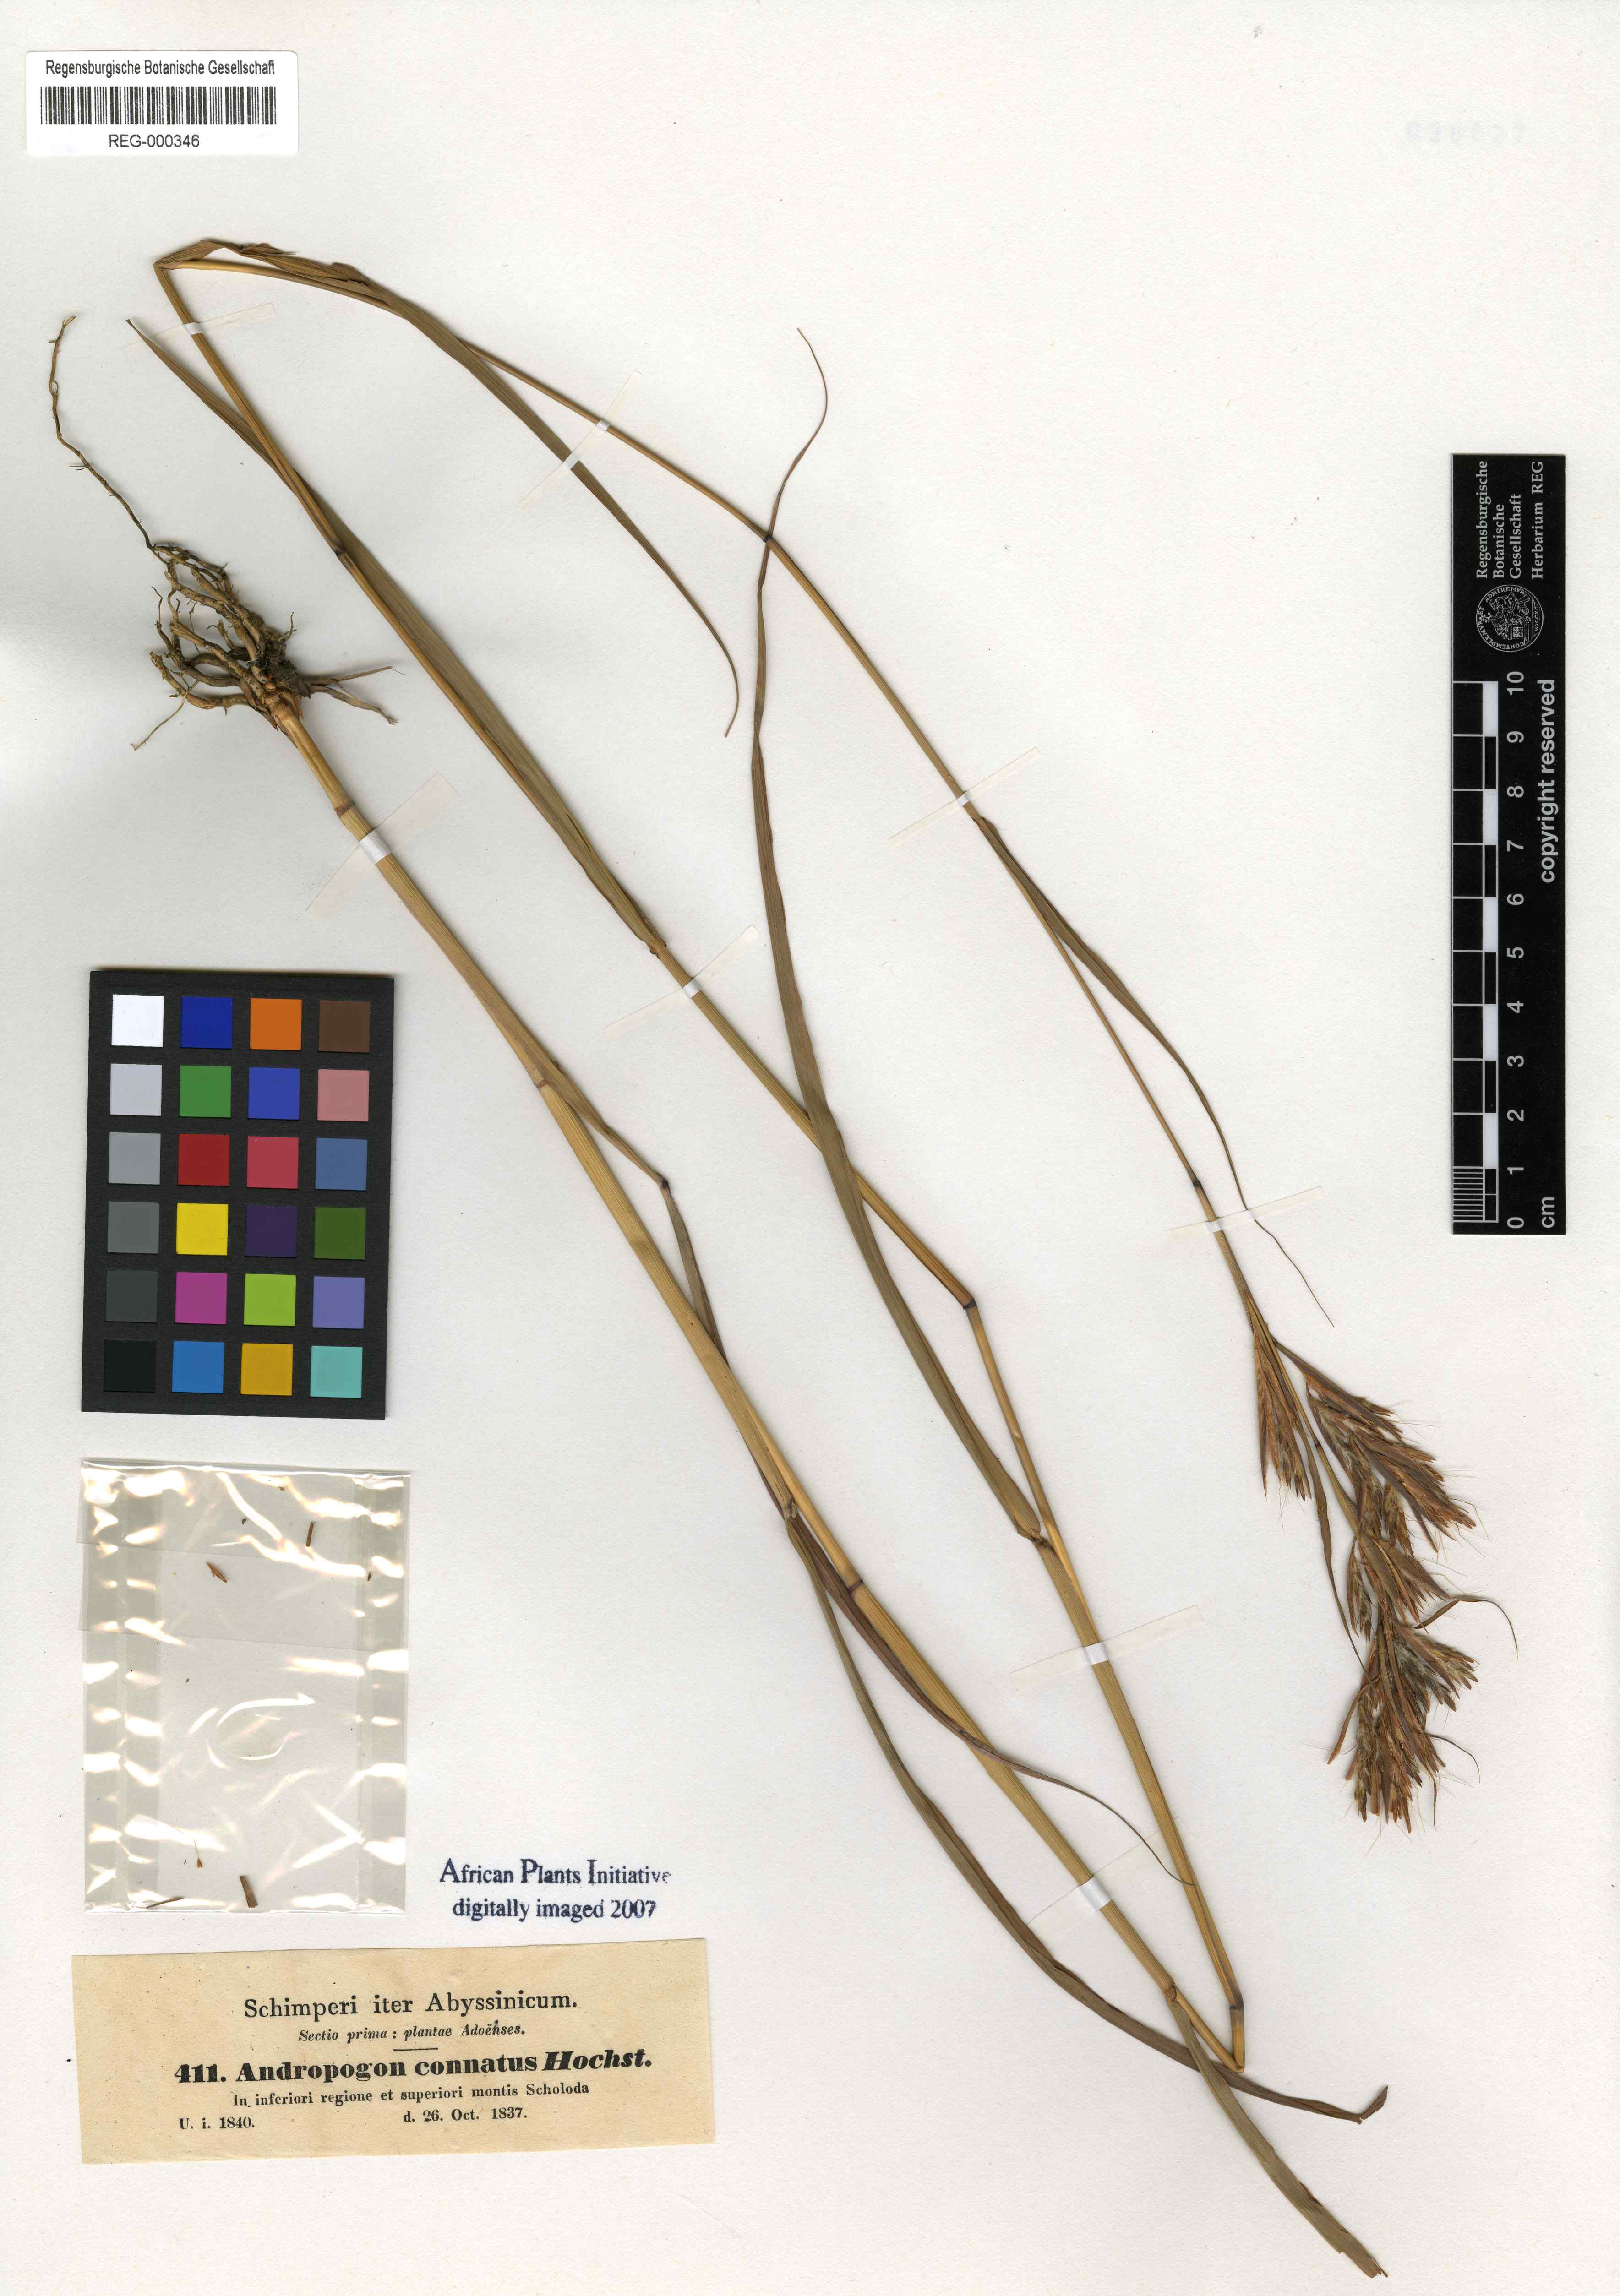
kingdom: Plantae
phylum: Tracheophyta
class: Liliopsida
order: Poales
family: Poaceae
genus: Cymbopogon
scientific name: Cymbopogon caesius
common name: Kachi grass
